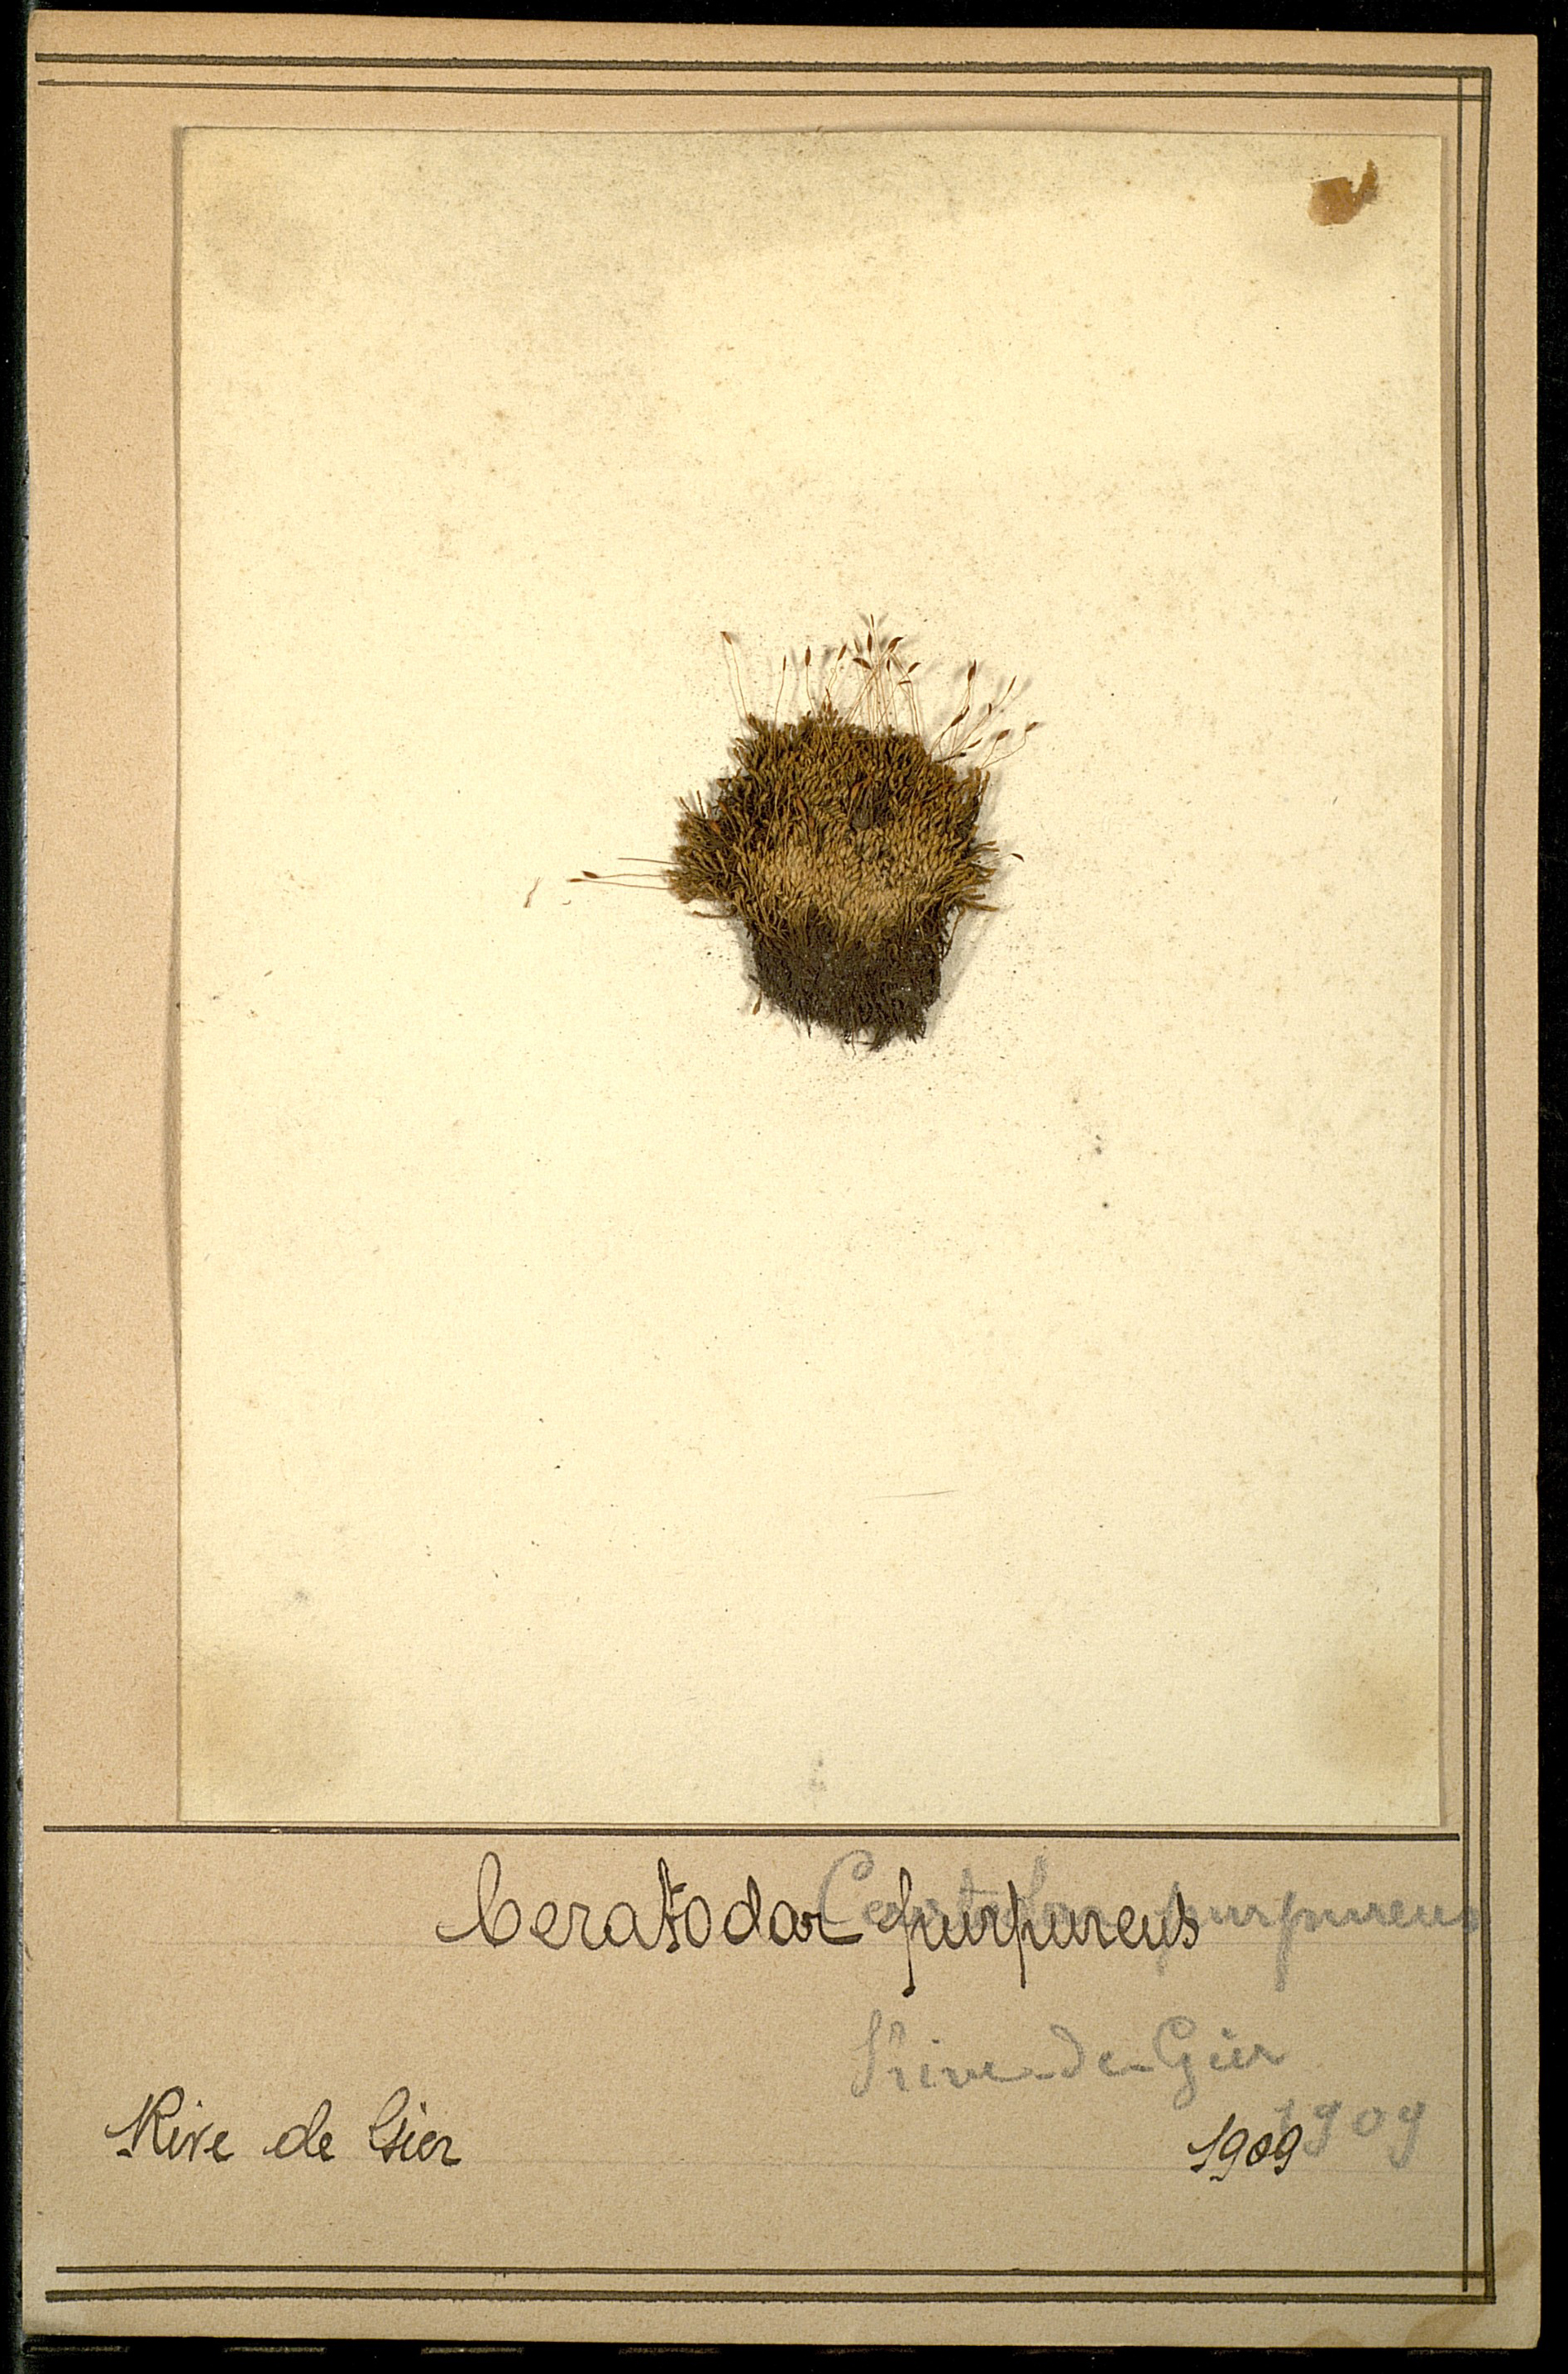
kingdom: Plantae
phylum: Bryophyta
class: Bryopsida
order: Dicranales
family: Ditrichaceae
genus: Ceratodon
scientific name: Ceratodon purpureus
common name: Redshank
